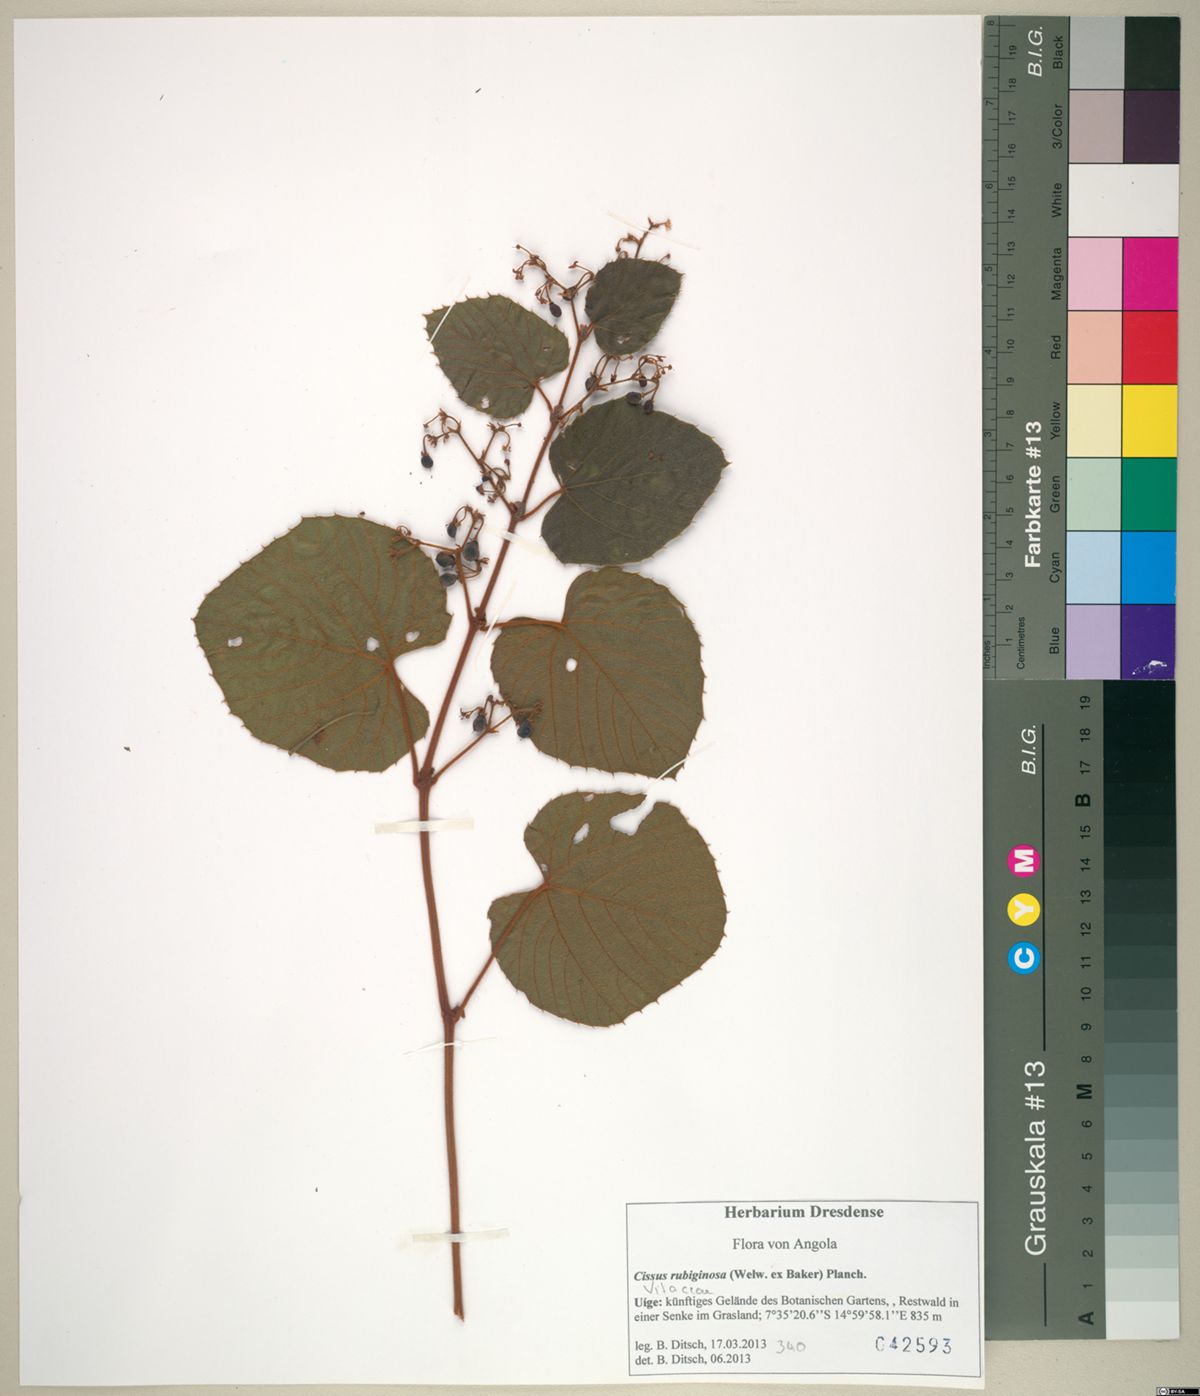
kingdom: Plantae
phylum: Tracheophyta
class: Magnoliopsida
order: Vitales
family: Vitaceae
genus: Cissus
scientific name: Cissus rubiginosa
